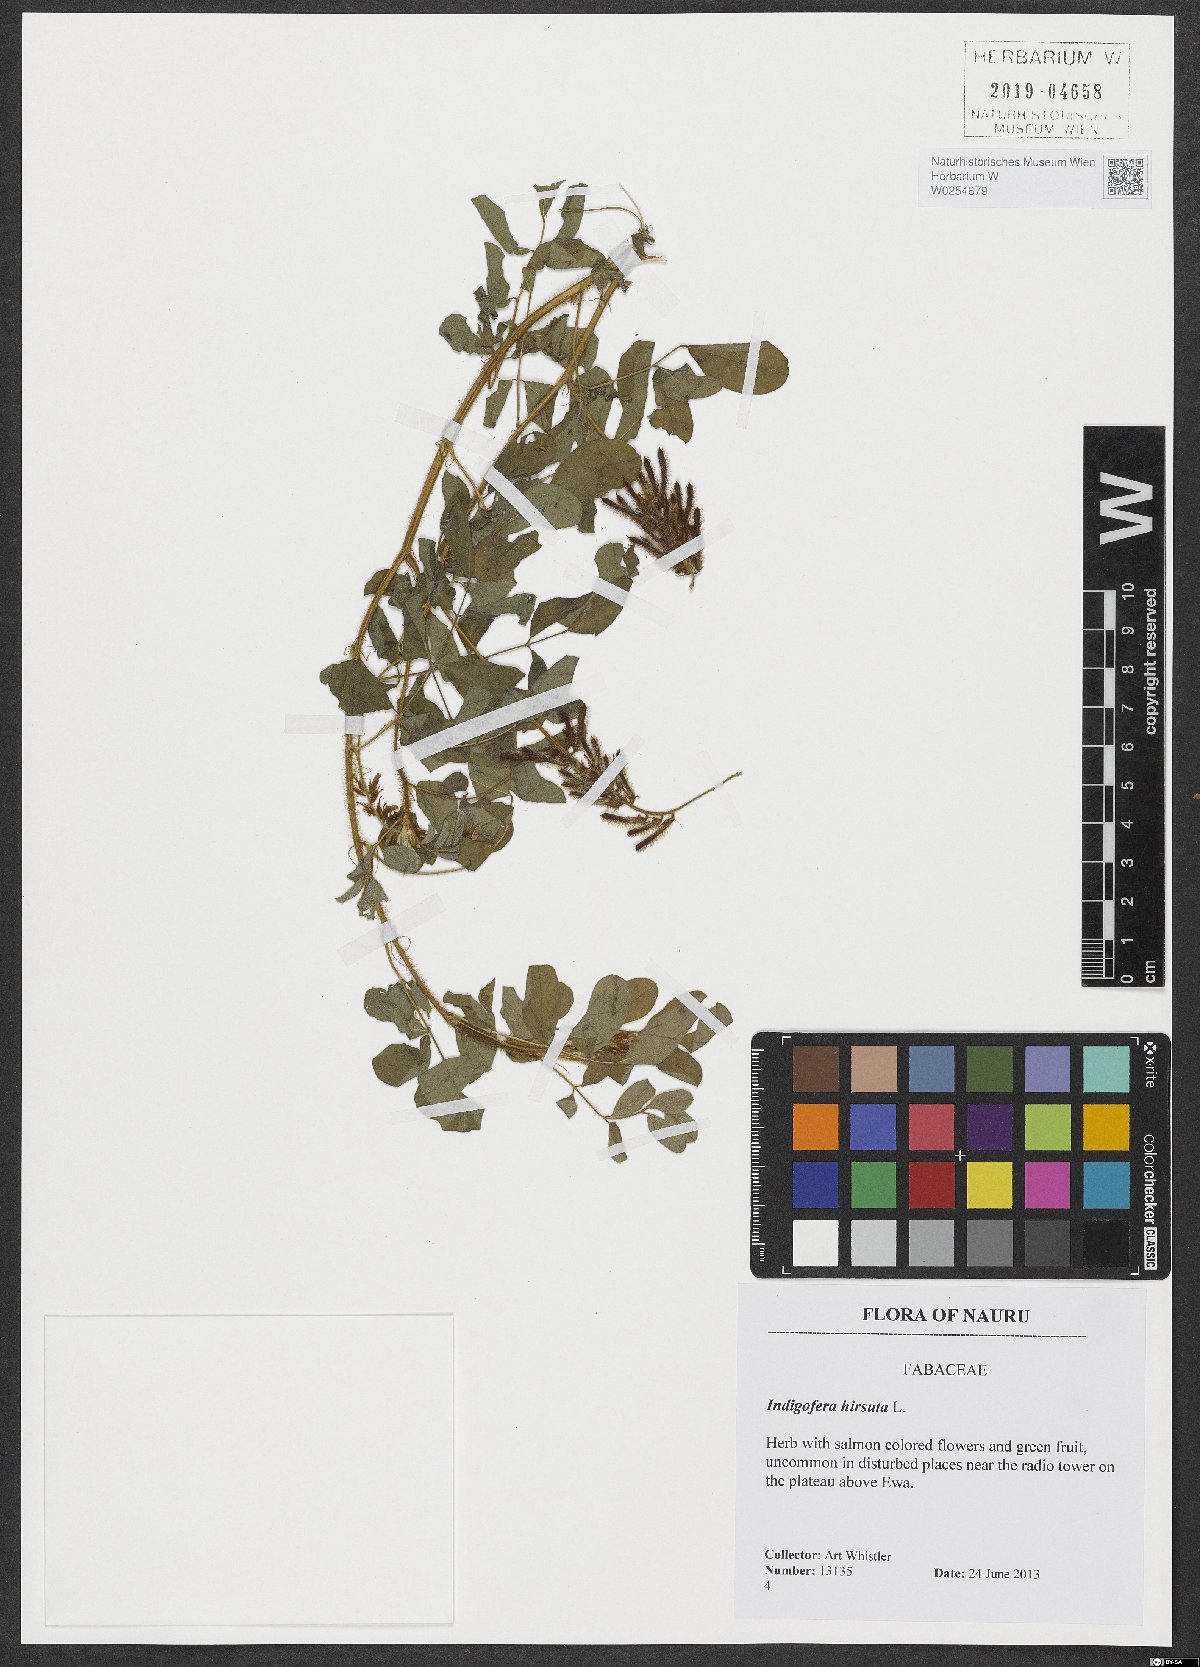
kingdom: Plantae
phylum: Tracheophyta
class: Magnoliopsida
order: Fabales
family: Fabaceae
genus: Indigofera
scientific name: Indigofera hirsuta
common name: Hairy indigo
